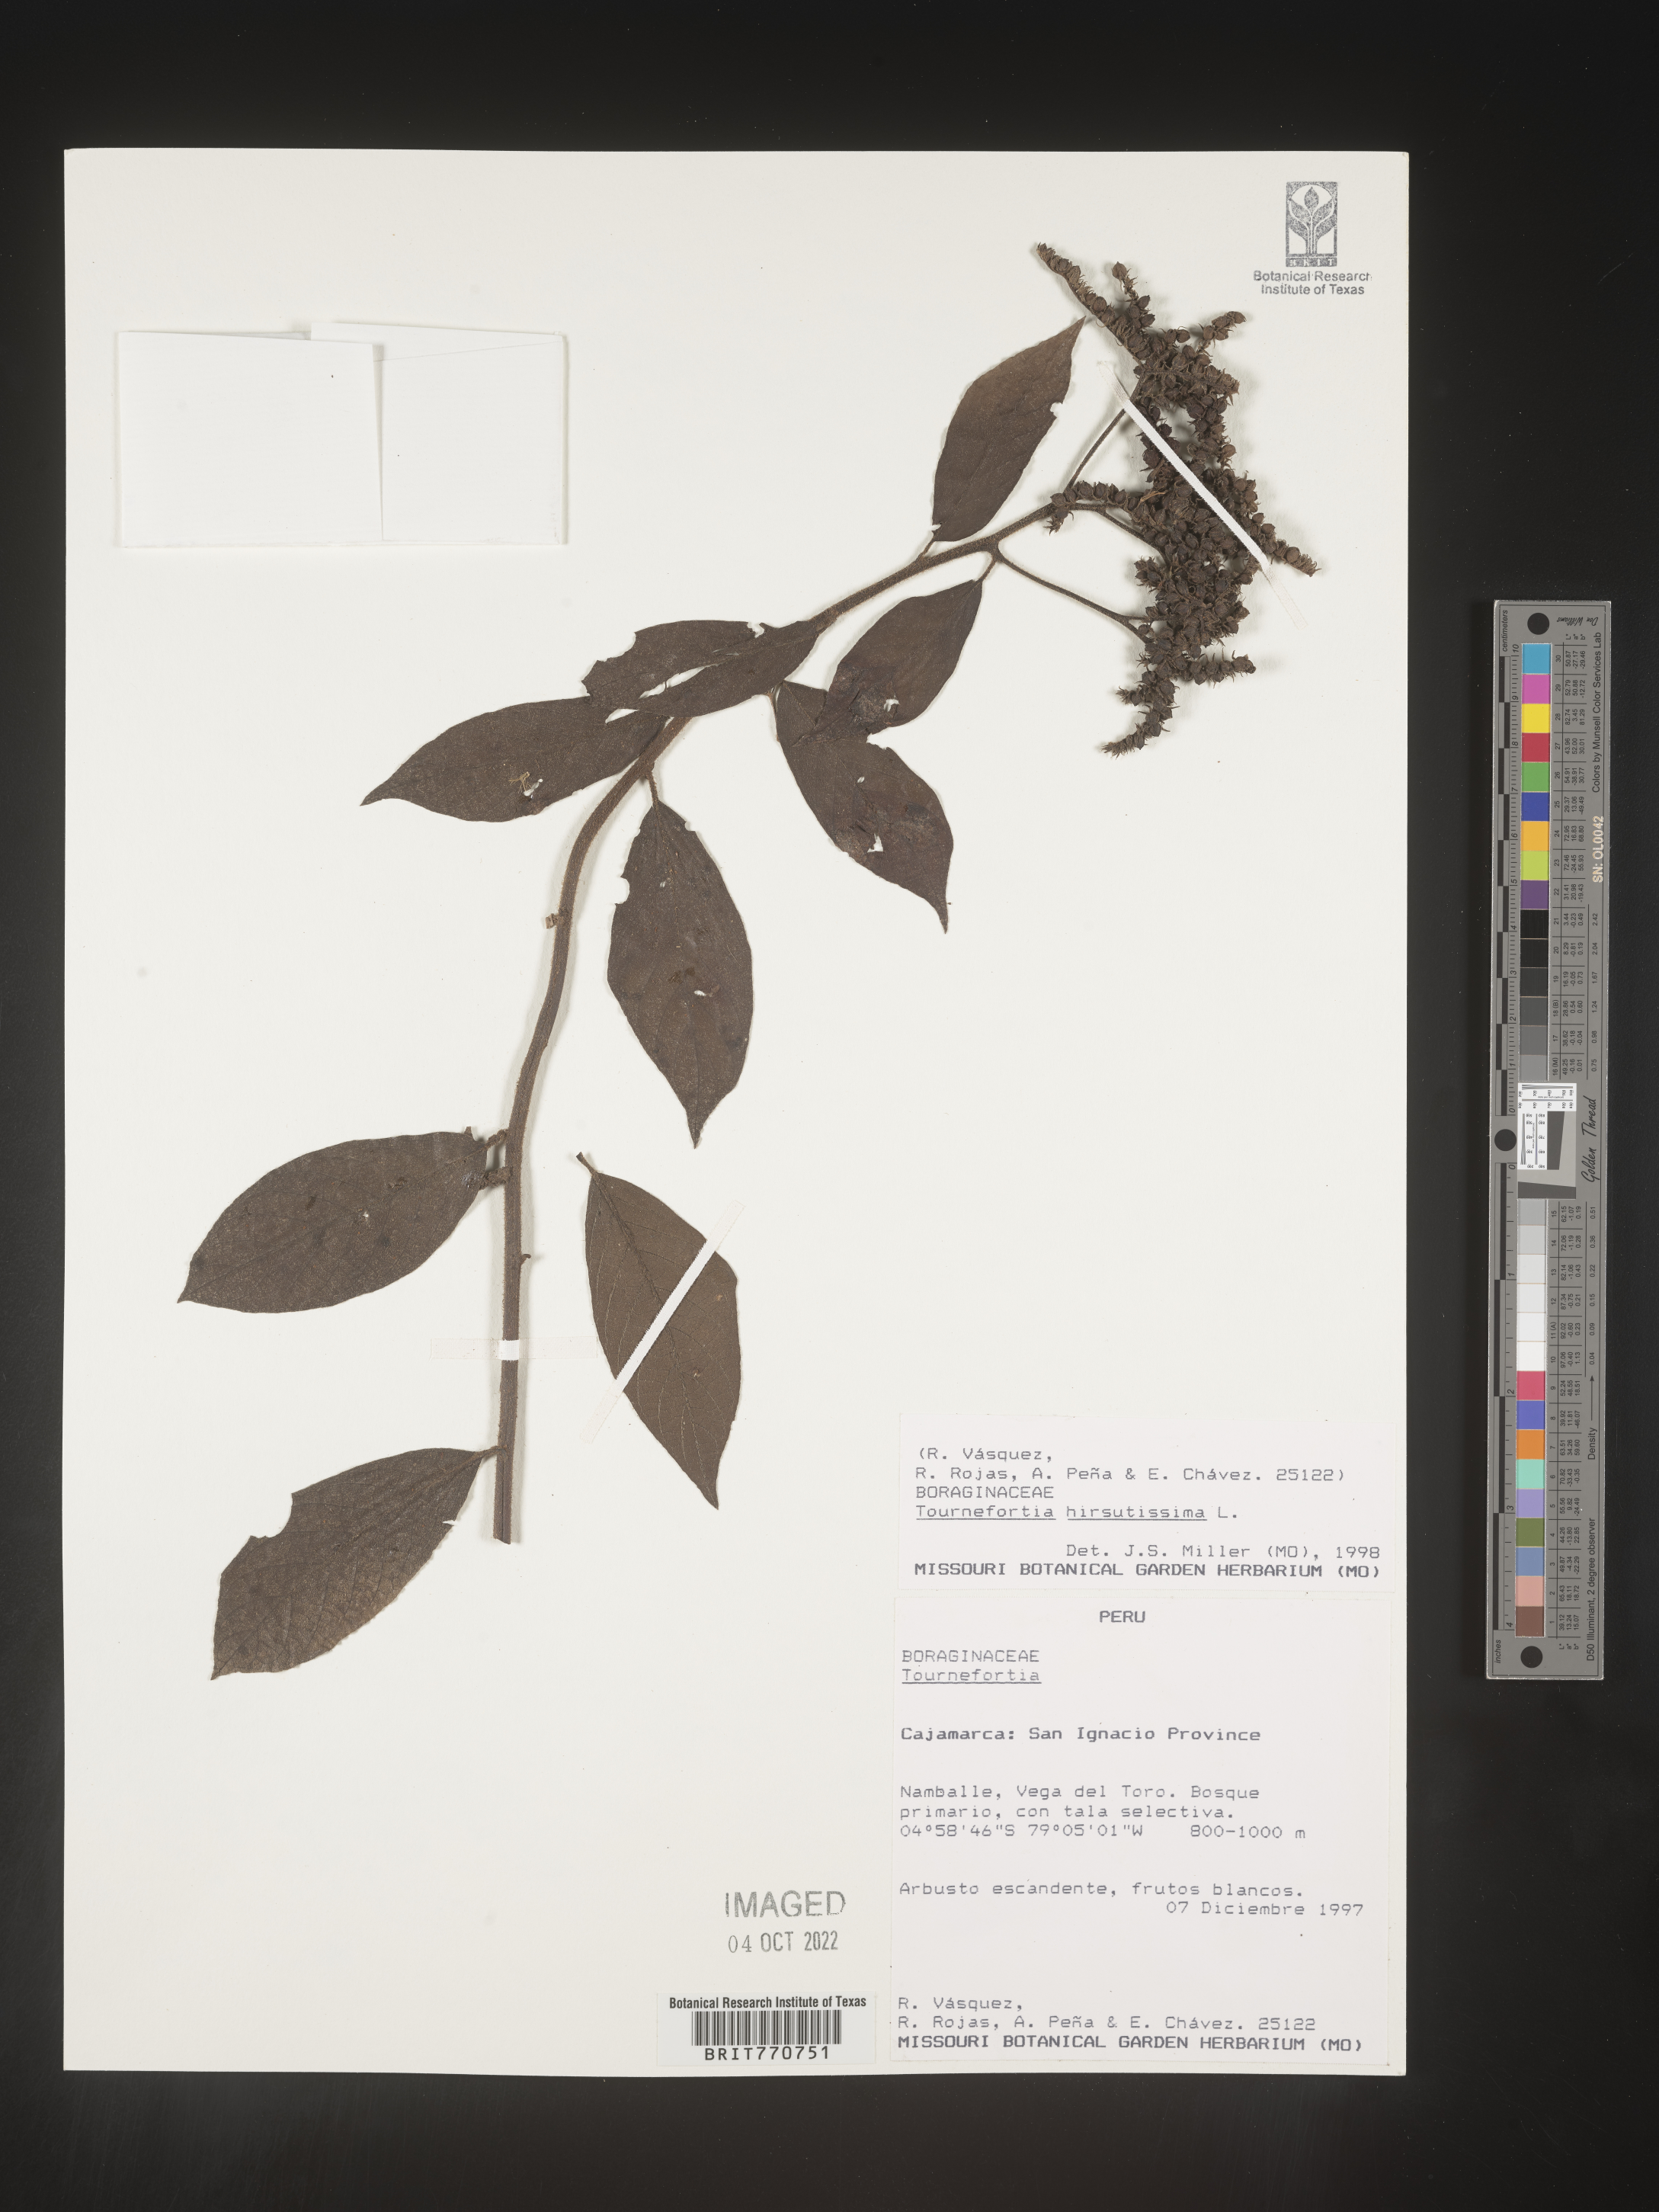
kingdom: Plantae
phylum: Tracheophyta
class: Magnoliopsida
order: Boraginales
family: Heliotropiaceae
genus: Tournefortia
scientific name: Tournefortia
